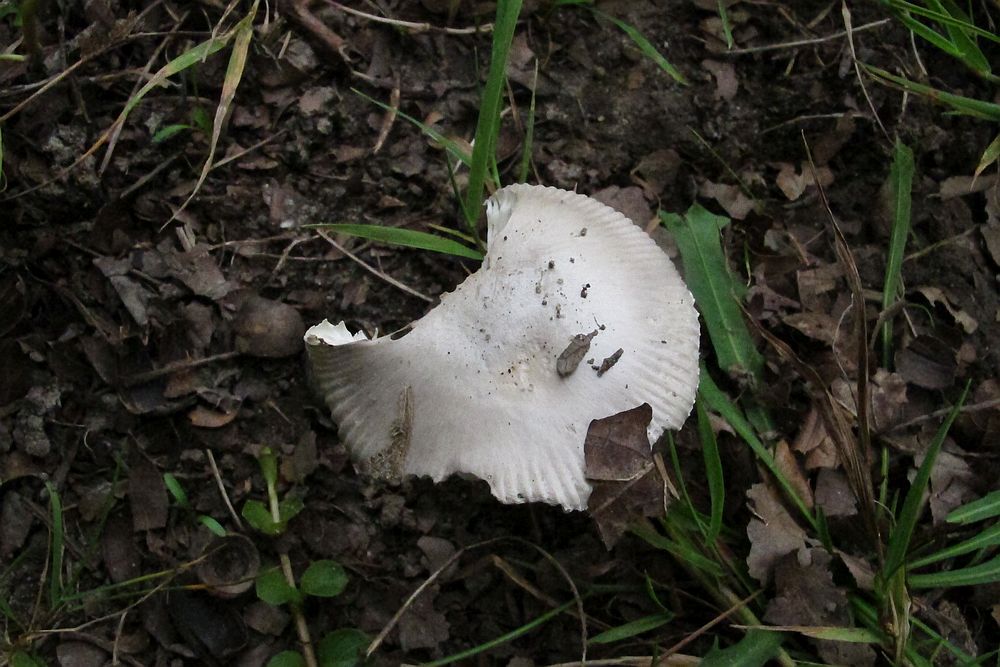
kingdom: Fungi
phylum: Basidiomycota
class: Agaricomycetes
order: Agaricales
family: Amanitaceae
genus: Amanita
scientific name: Amanita
